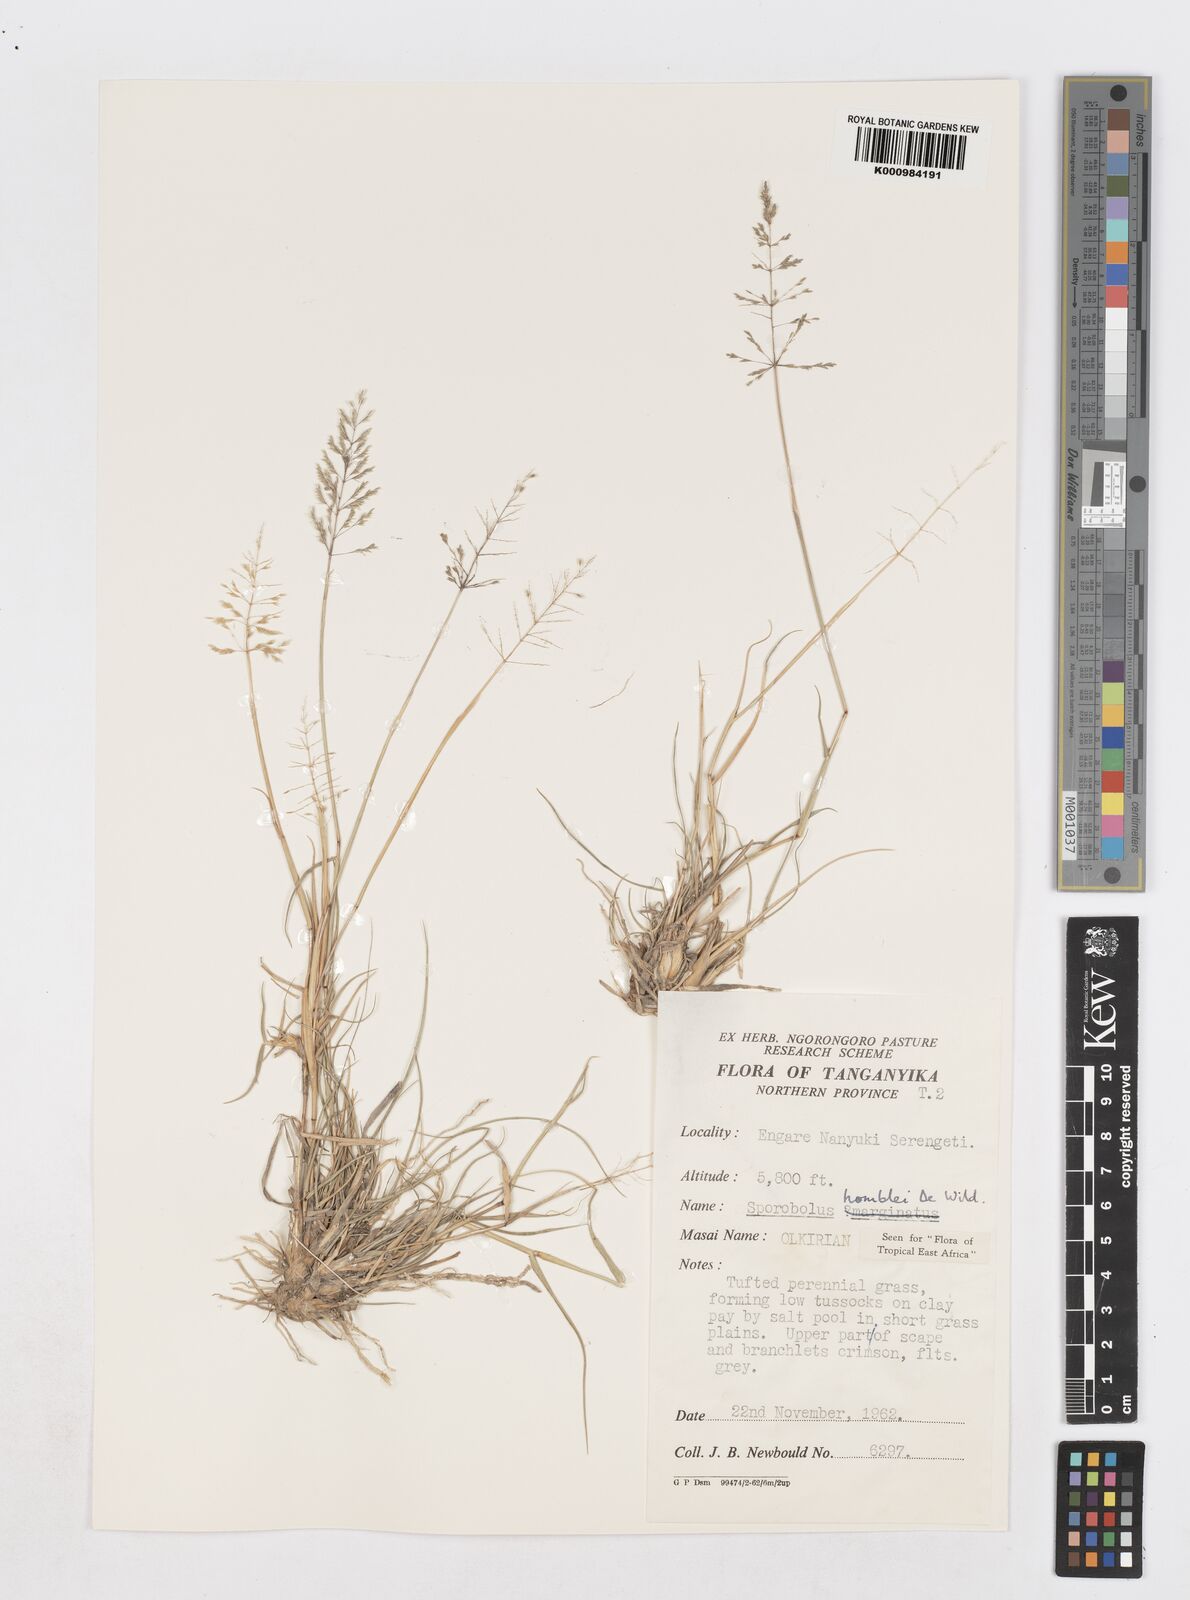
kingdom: Plantae
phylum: Tracheophyta
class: Liliopsida
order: Poales
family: Poaceae
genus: Sporobolus
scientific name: Sporobolus ioclados
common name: Pan dropseed
